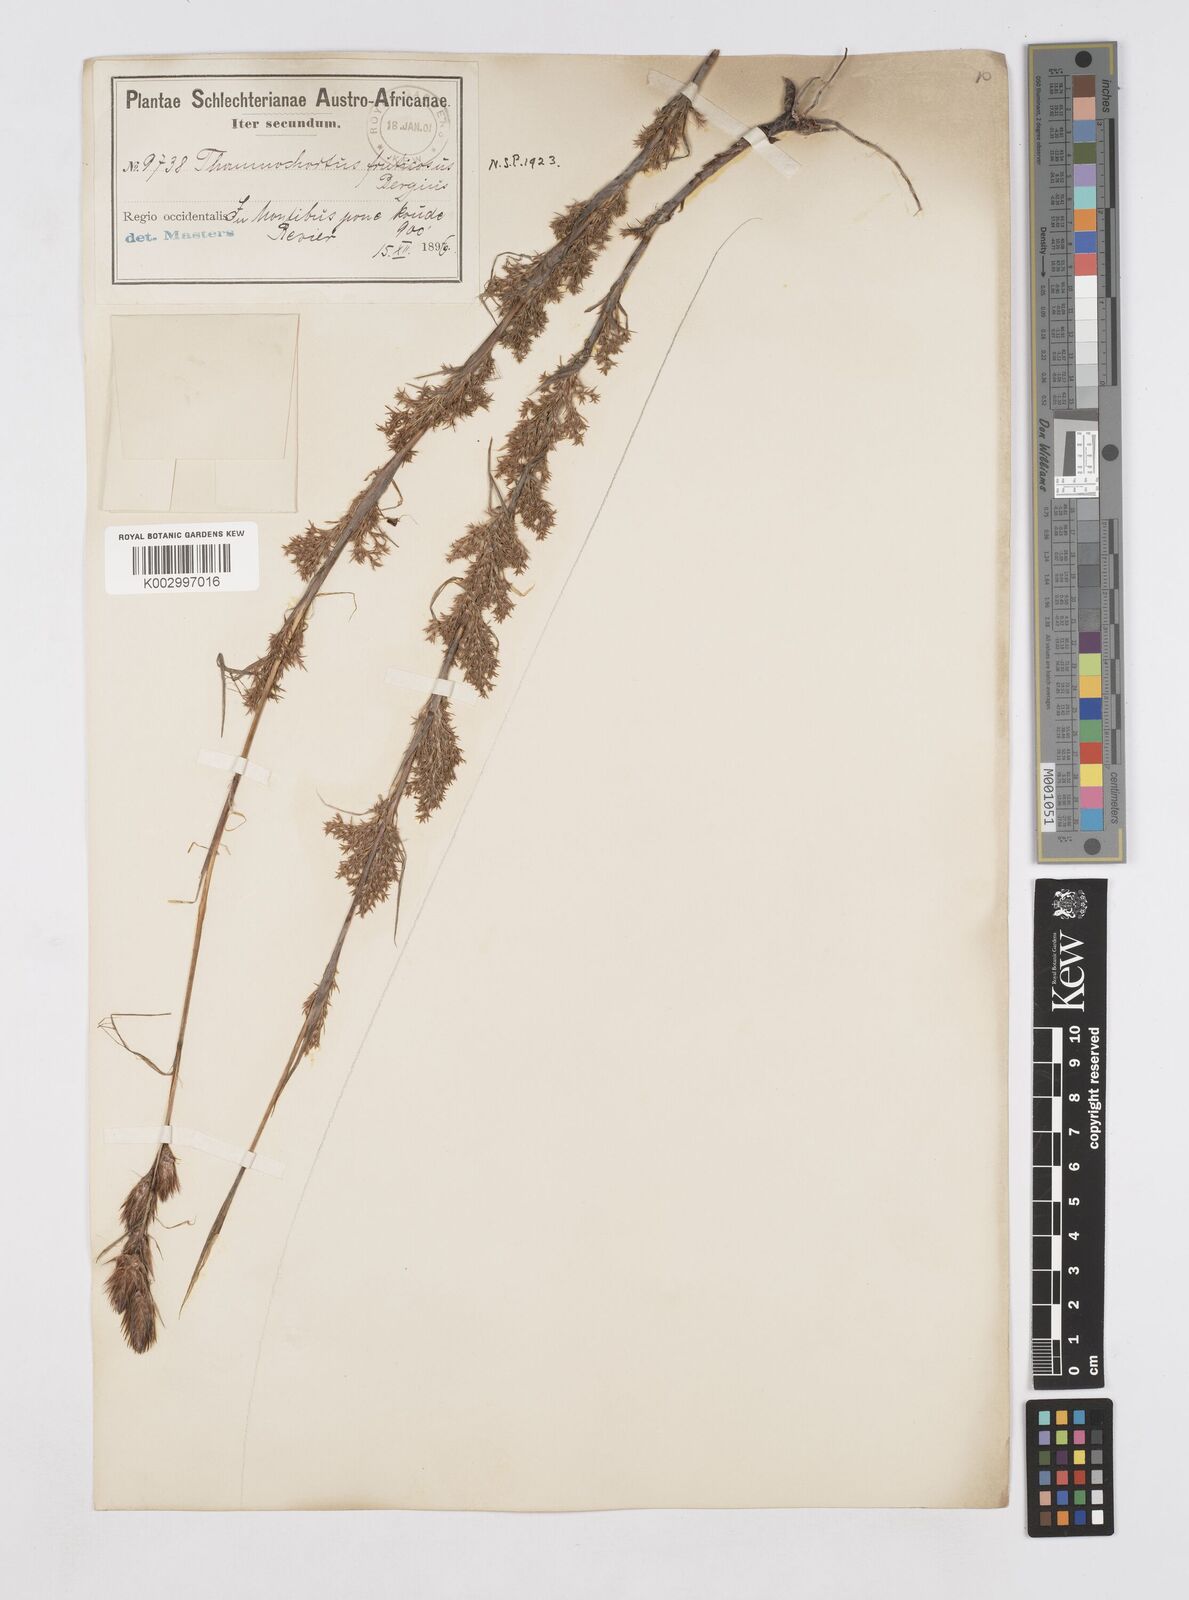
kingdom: Plantae
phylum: Tracheophyta
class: Liliopsida
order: Poales
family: Restionaceae
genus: Thamnochortus
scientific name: Thamnochortus fruticosus
